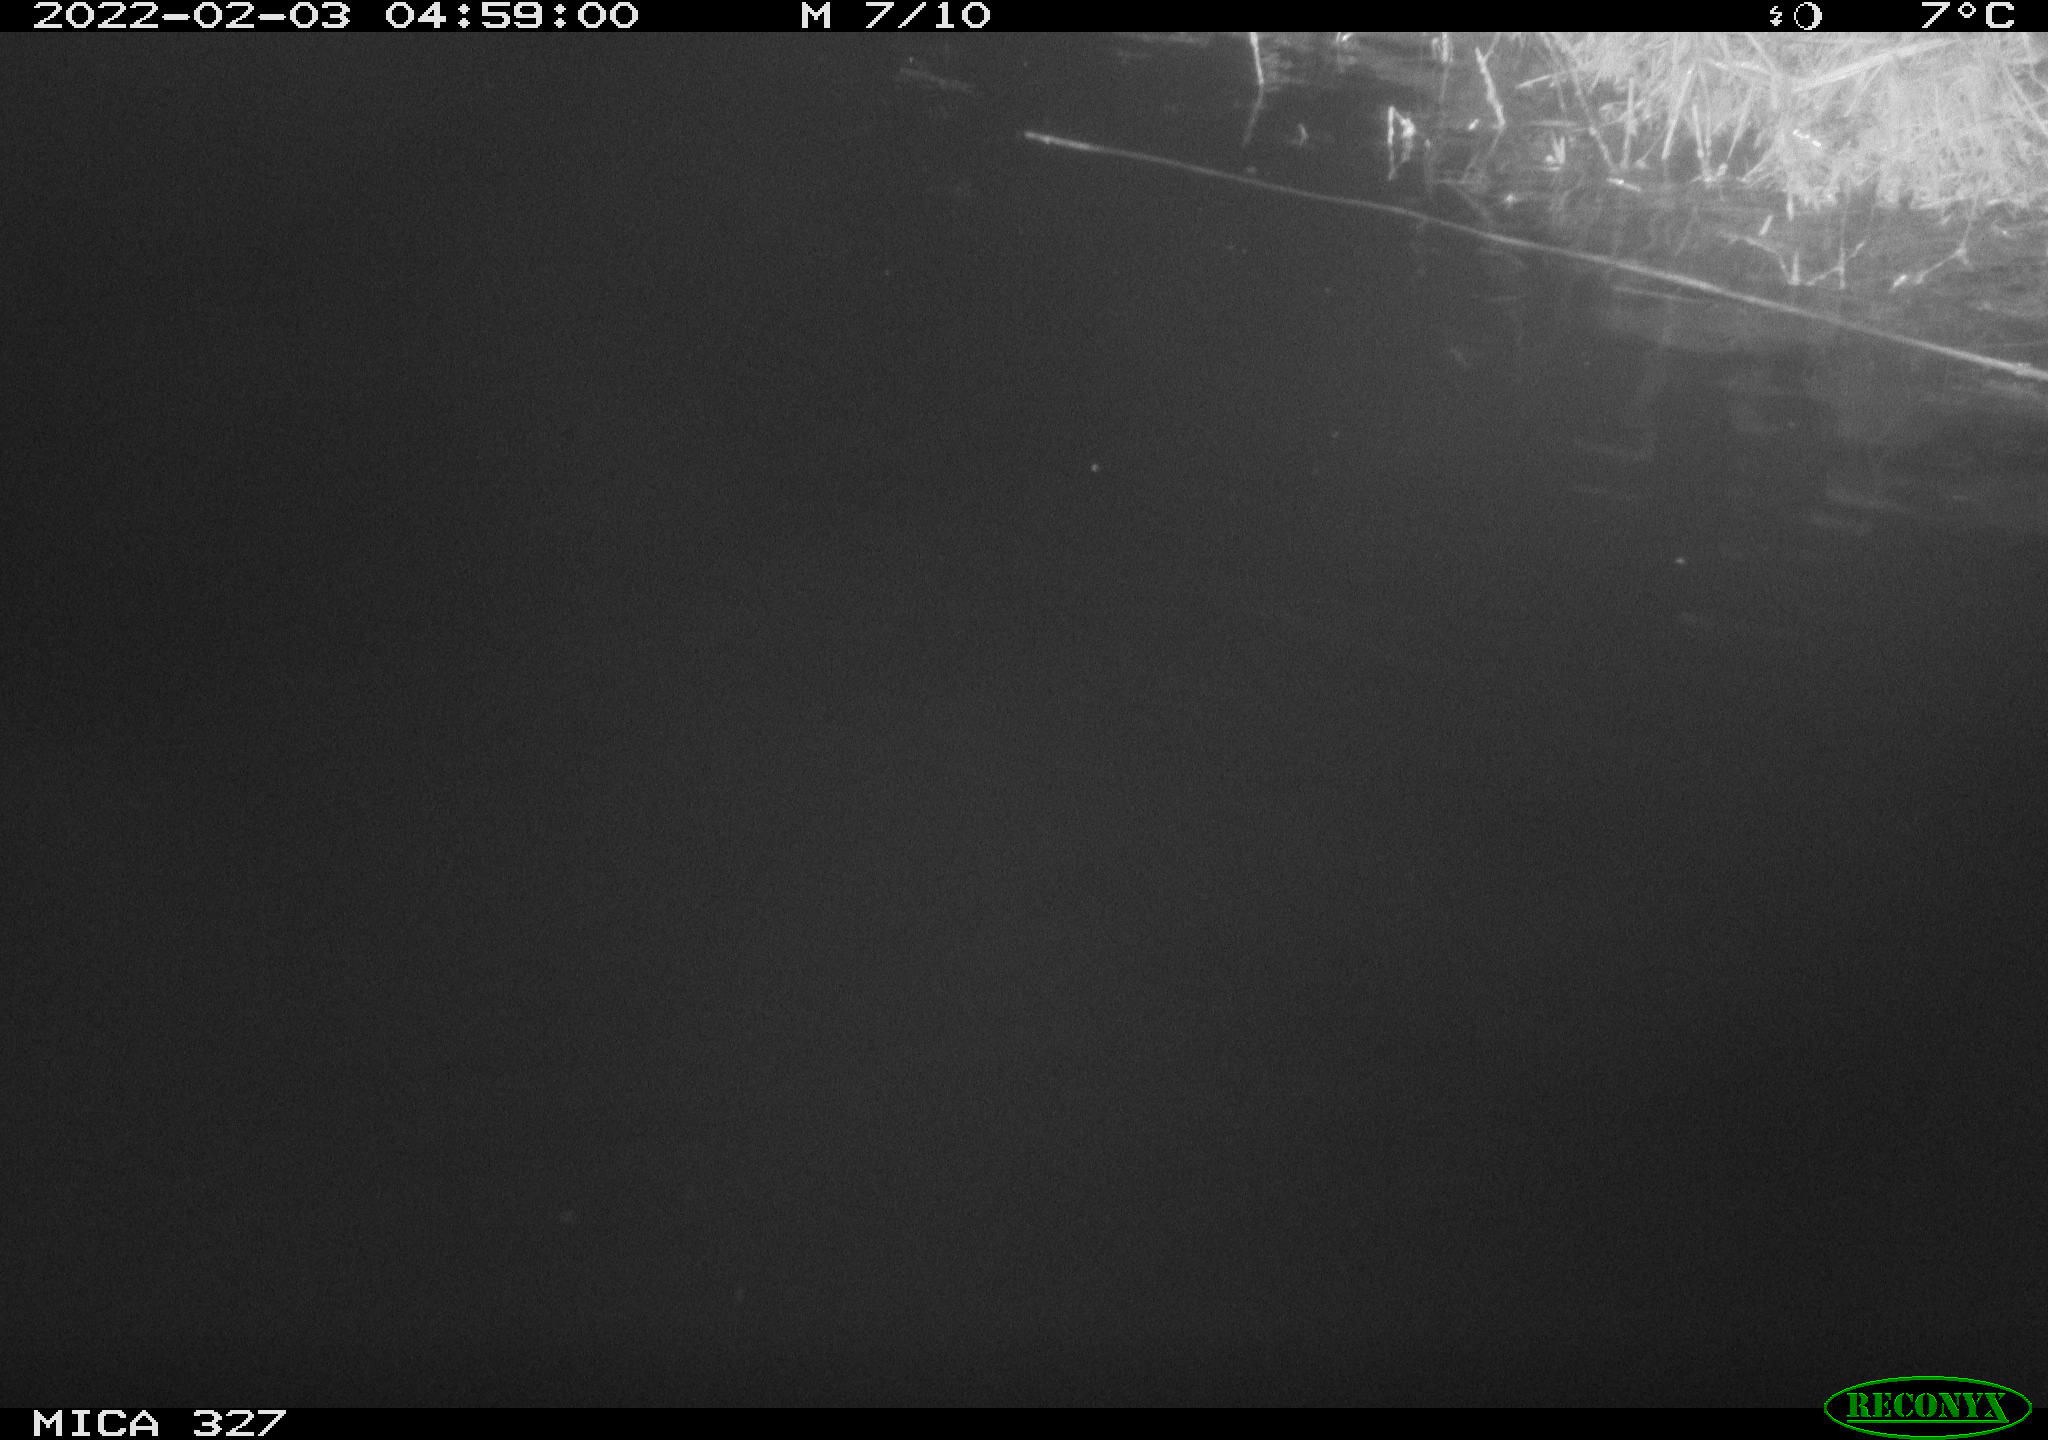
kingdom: Animalia
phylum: Chordata
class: Mammalia
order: Rodentia
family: Cricetidae
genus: Ondatra
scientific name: Ondatra zibethicus
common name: Muskrat
